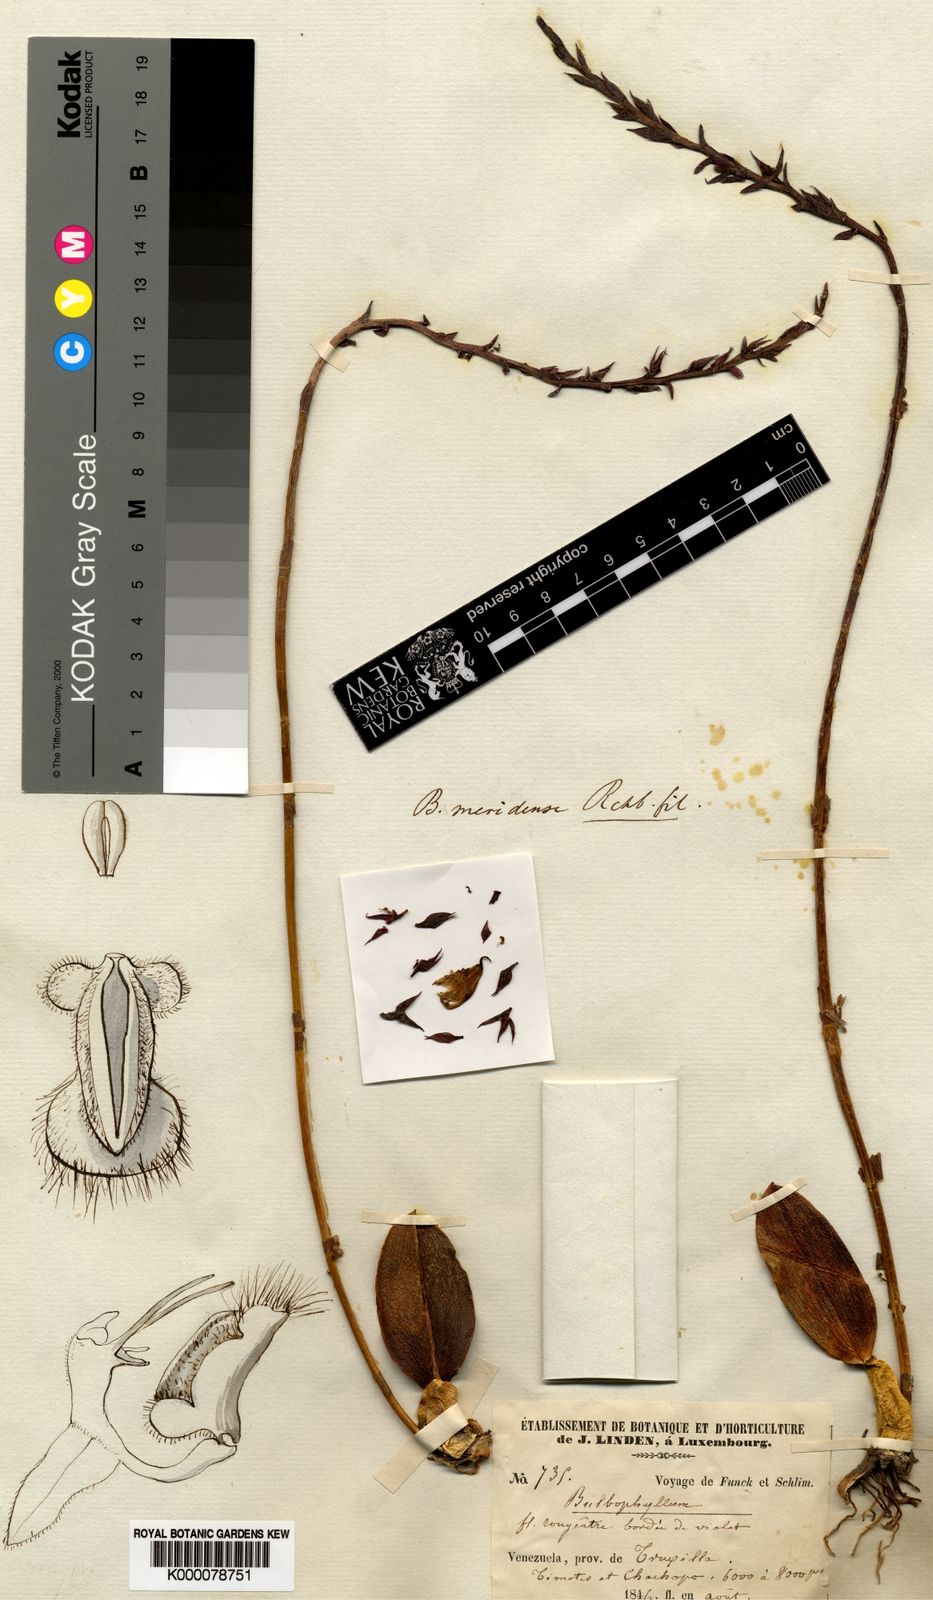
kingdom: Plantae
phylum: Tracheophyta
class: Liliopsida
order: Asparagales
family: Orchidaceae
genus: Bulbophyllum
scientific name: Bulbophyllum geraense
